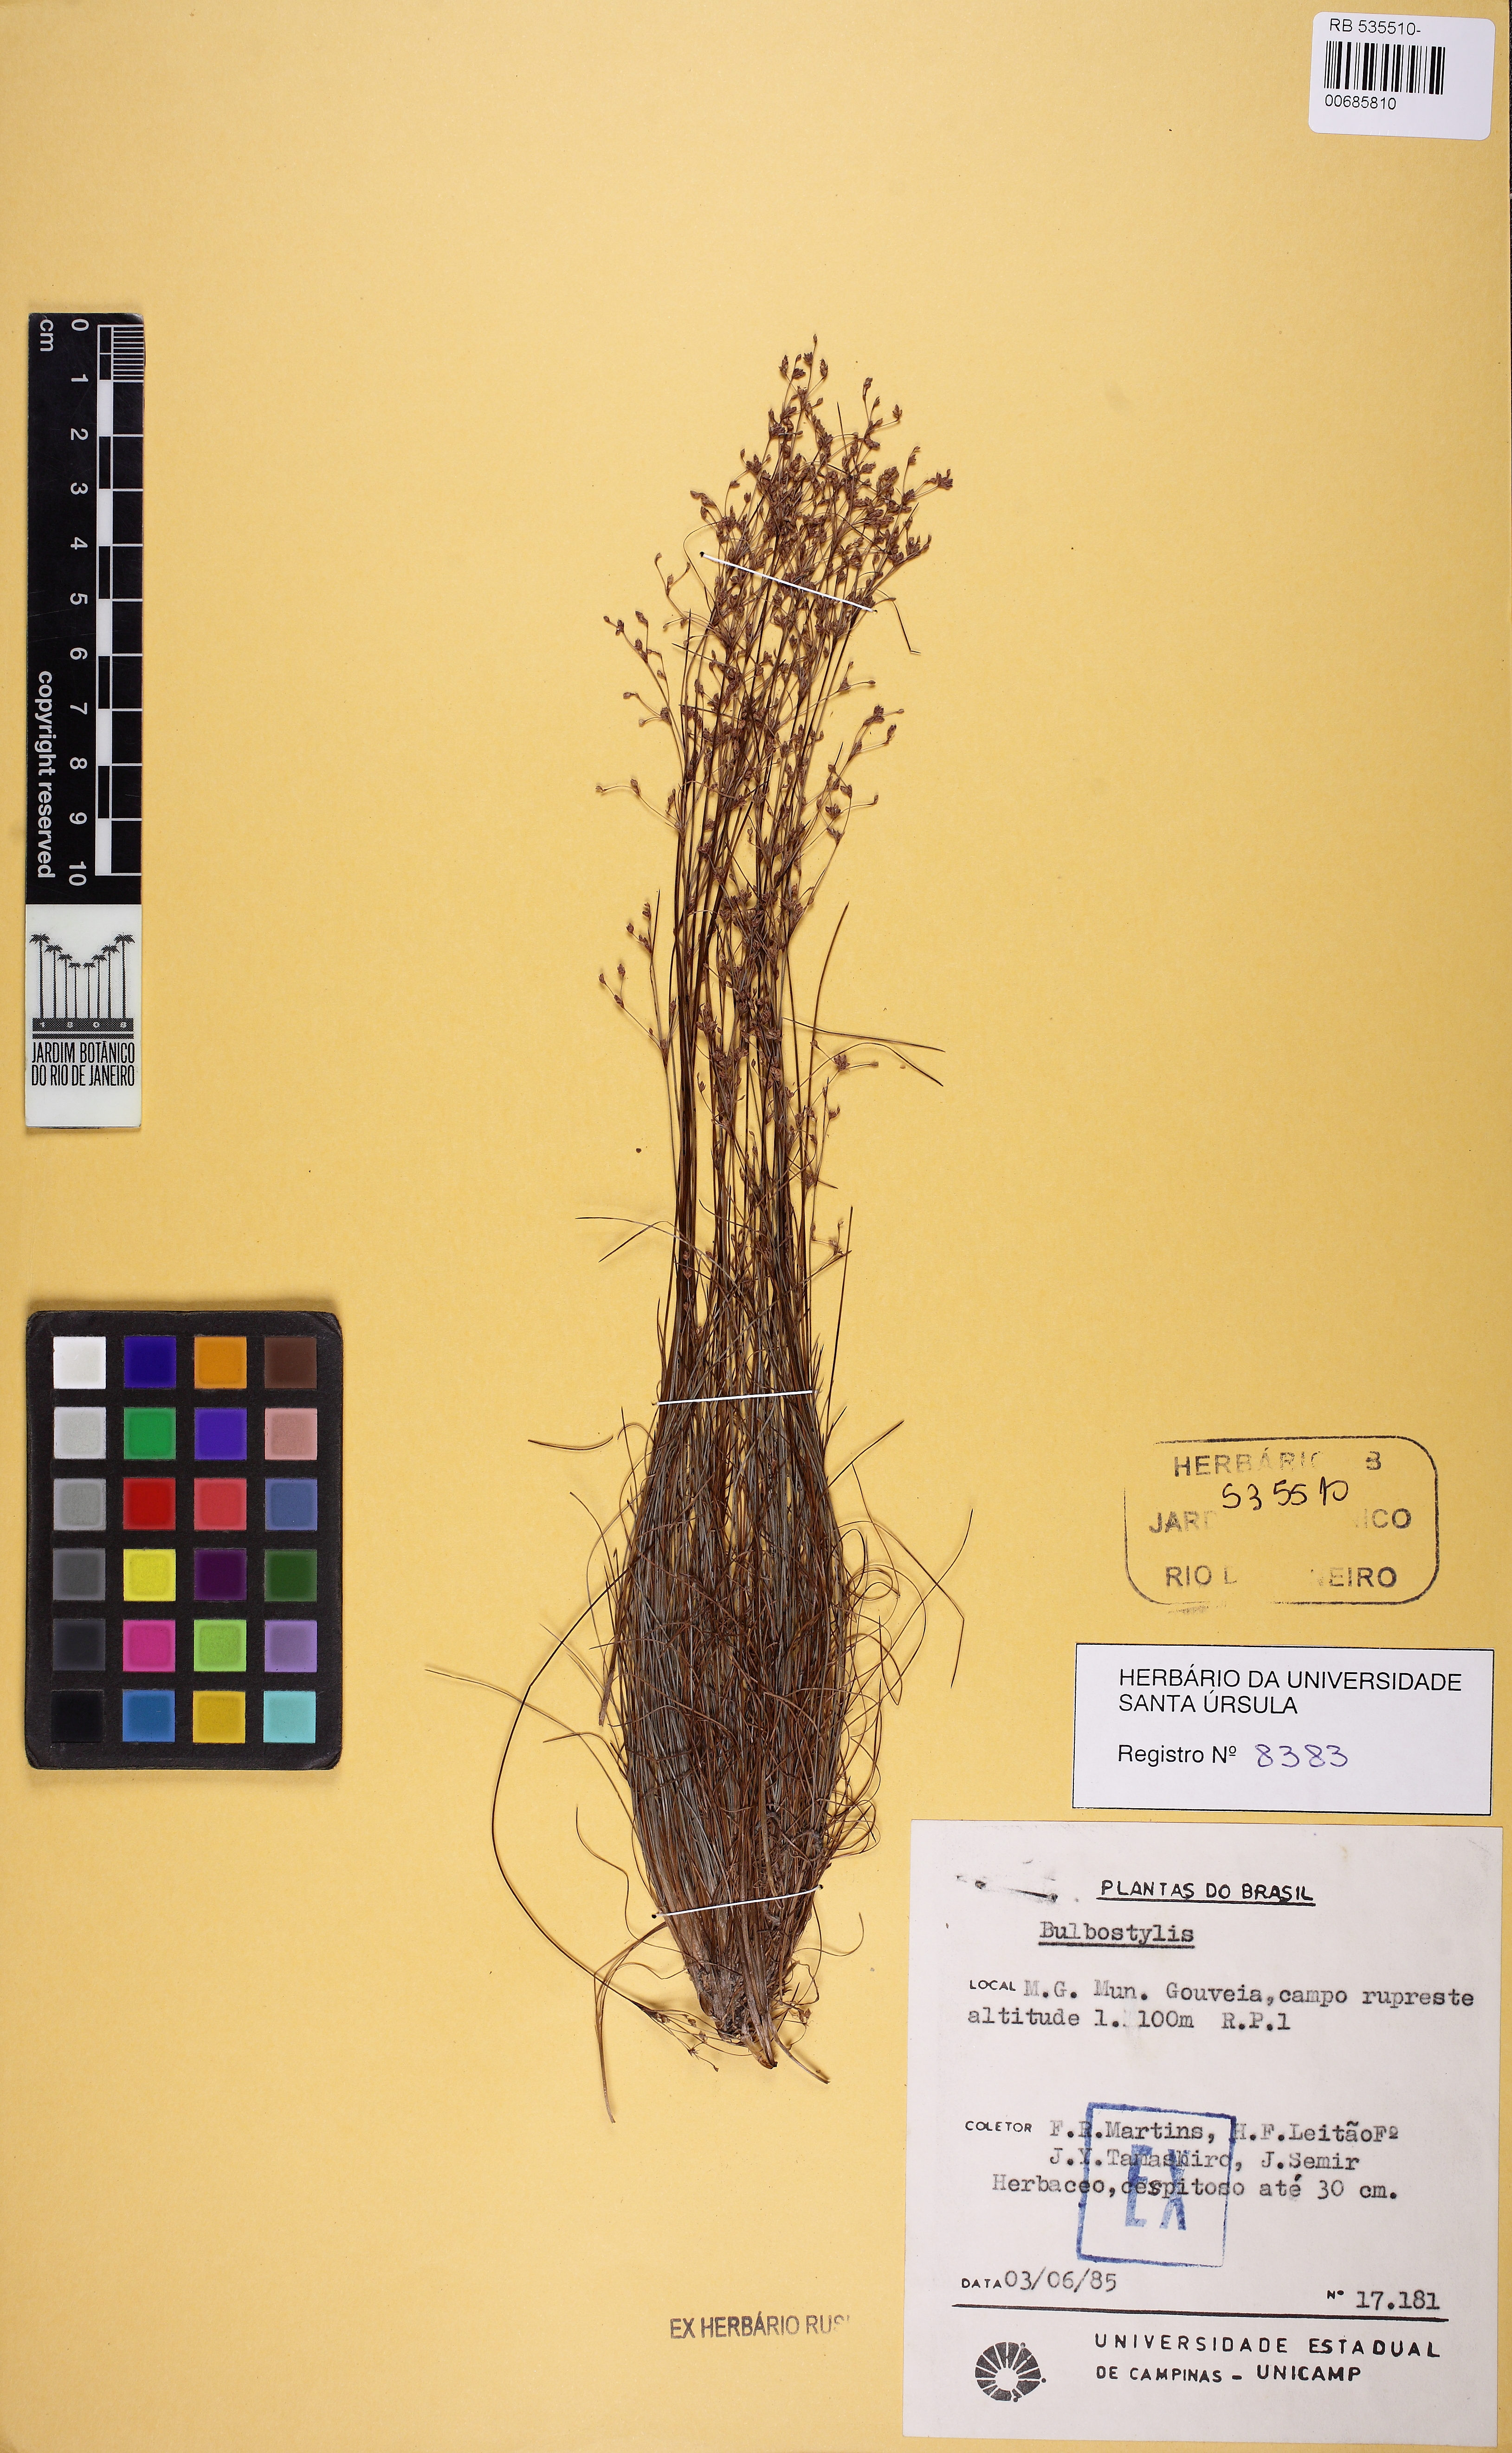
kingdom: Plantae
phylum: Tracheophyta
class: Liliopsida
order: Poales
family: Cyperaceae
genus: Bulbostylis
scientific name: Bulbostylis
